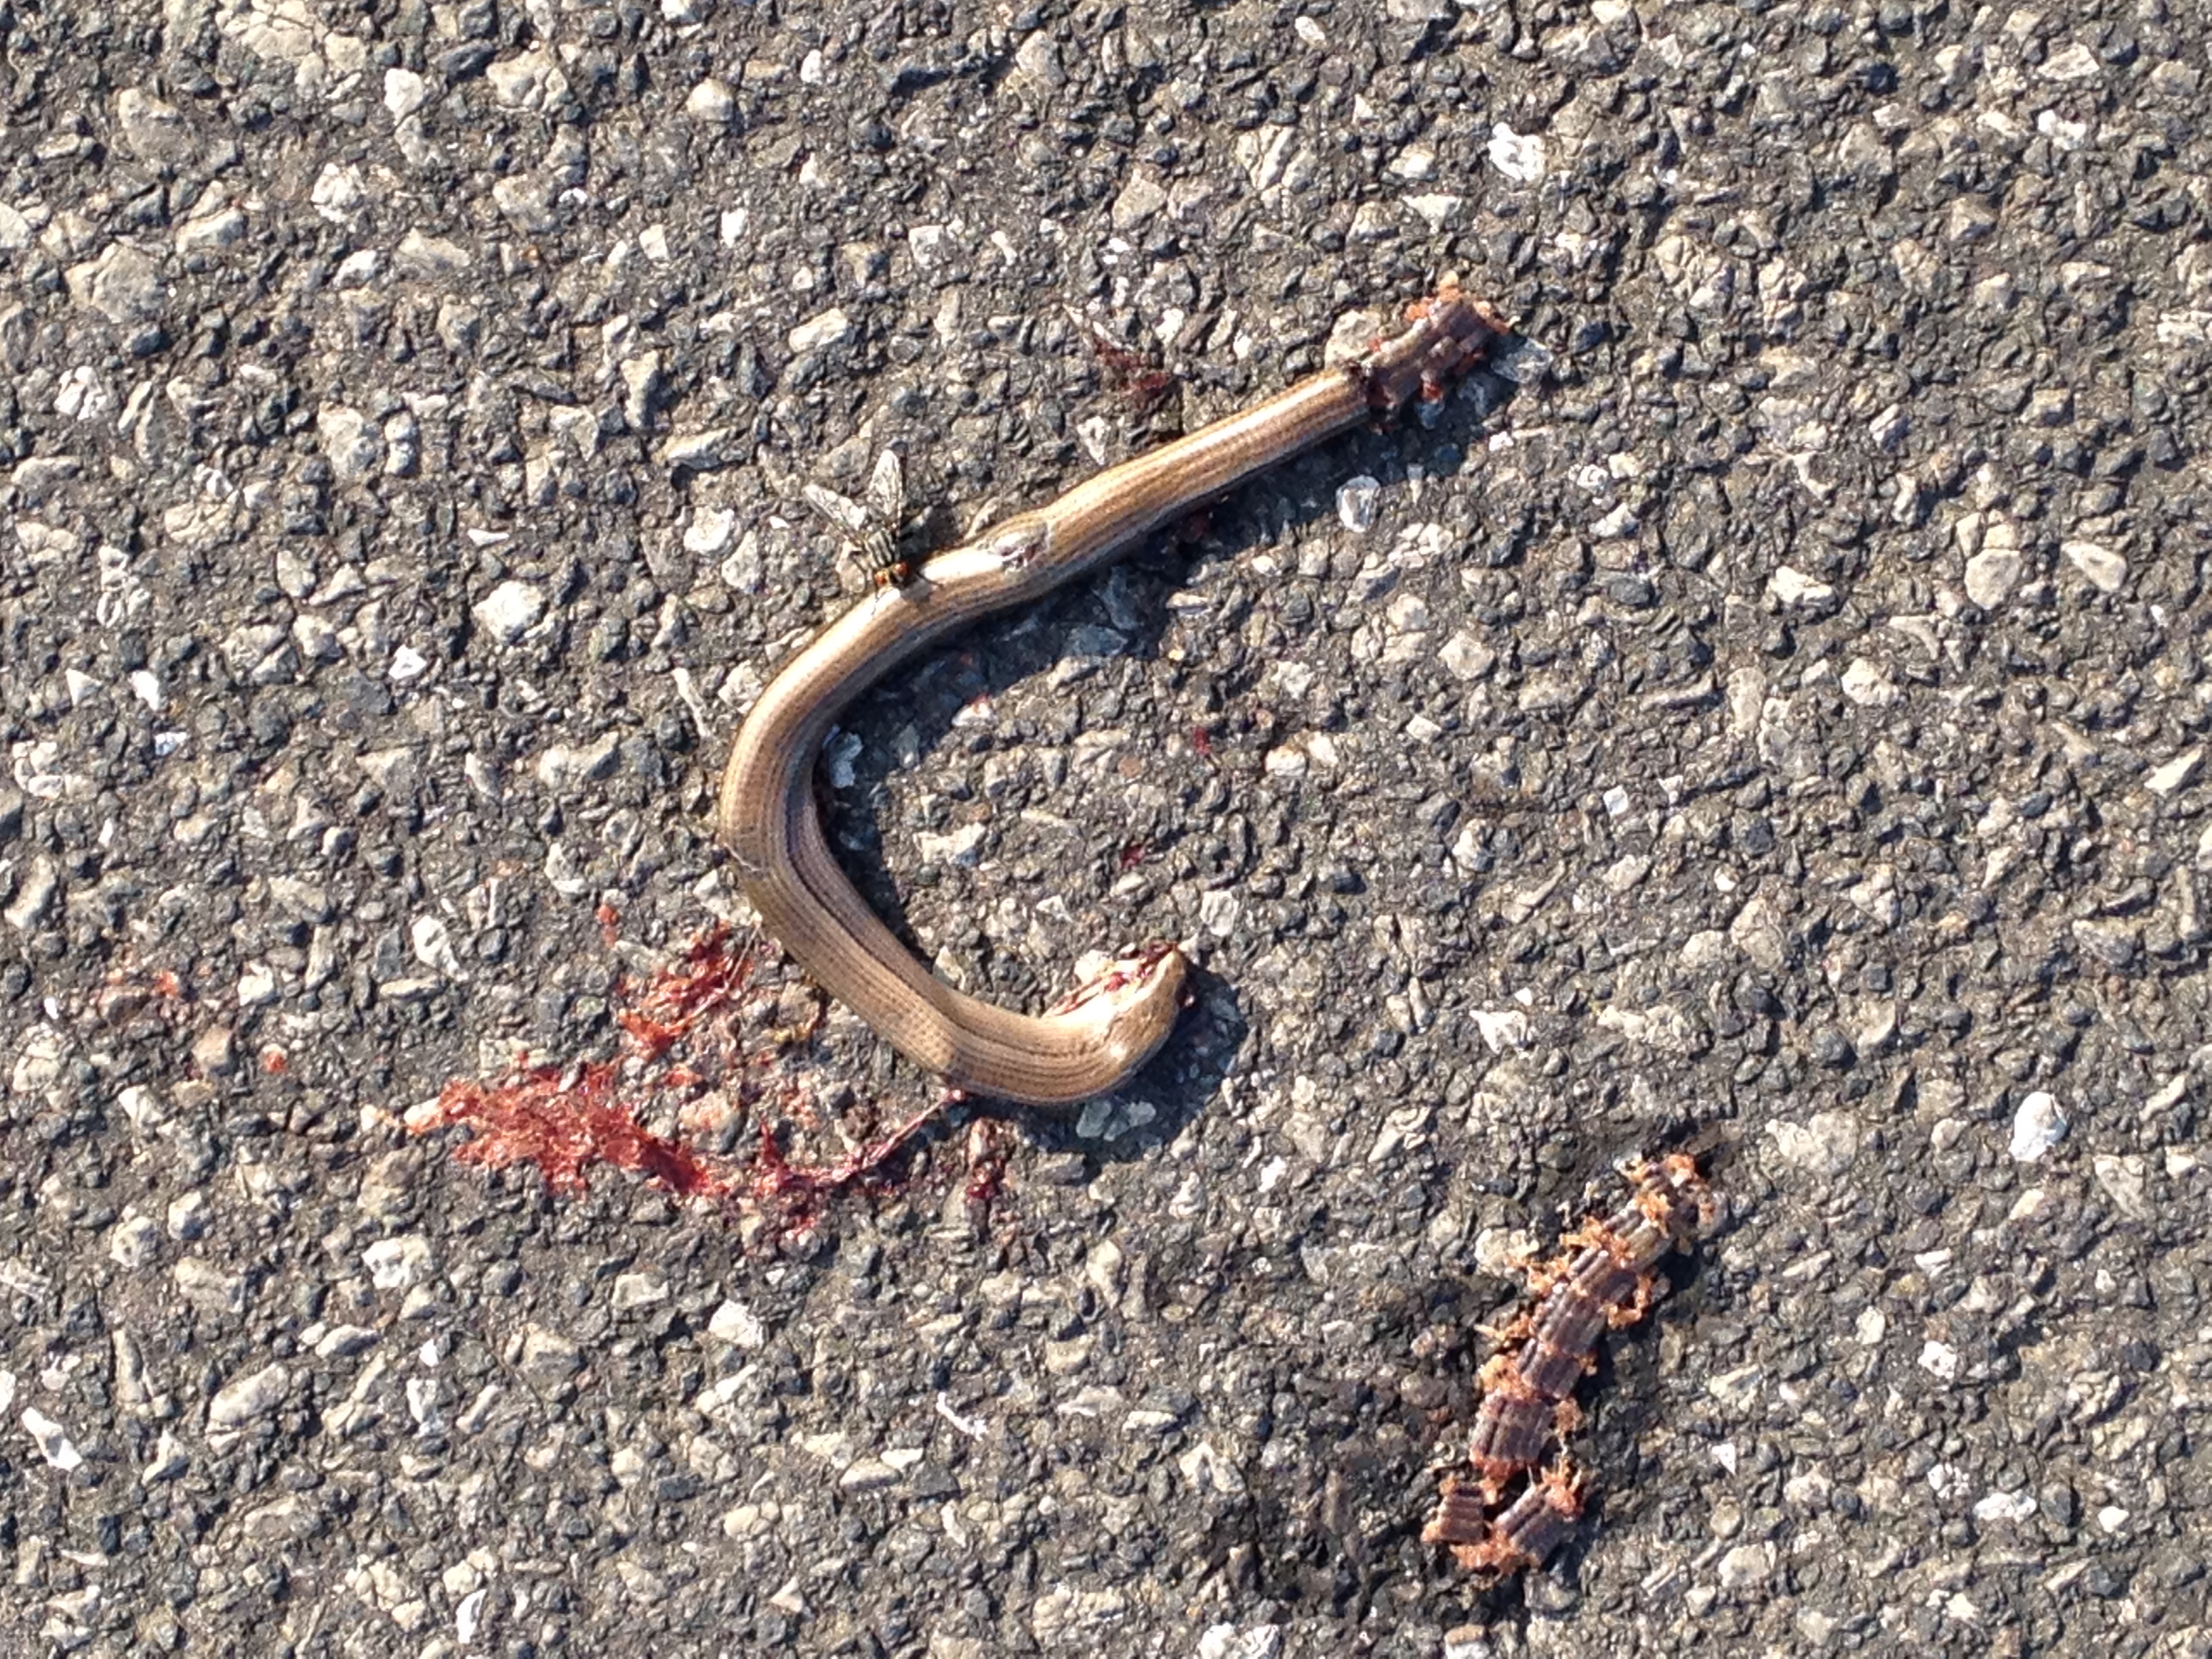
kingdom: Animalia
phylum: Chordata
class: Squamata
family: Anguidae
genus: Anguis
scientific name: Anguis fragilis
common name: Slow worm
